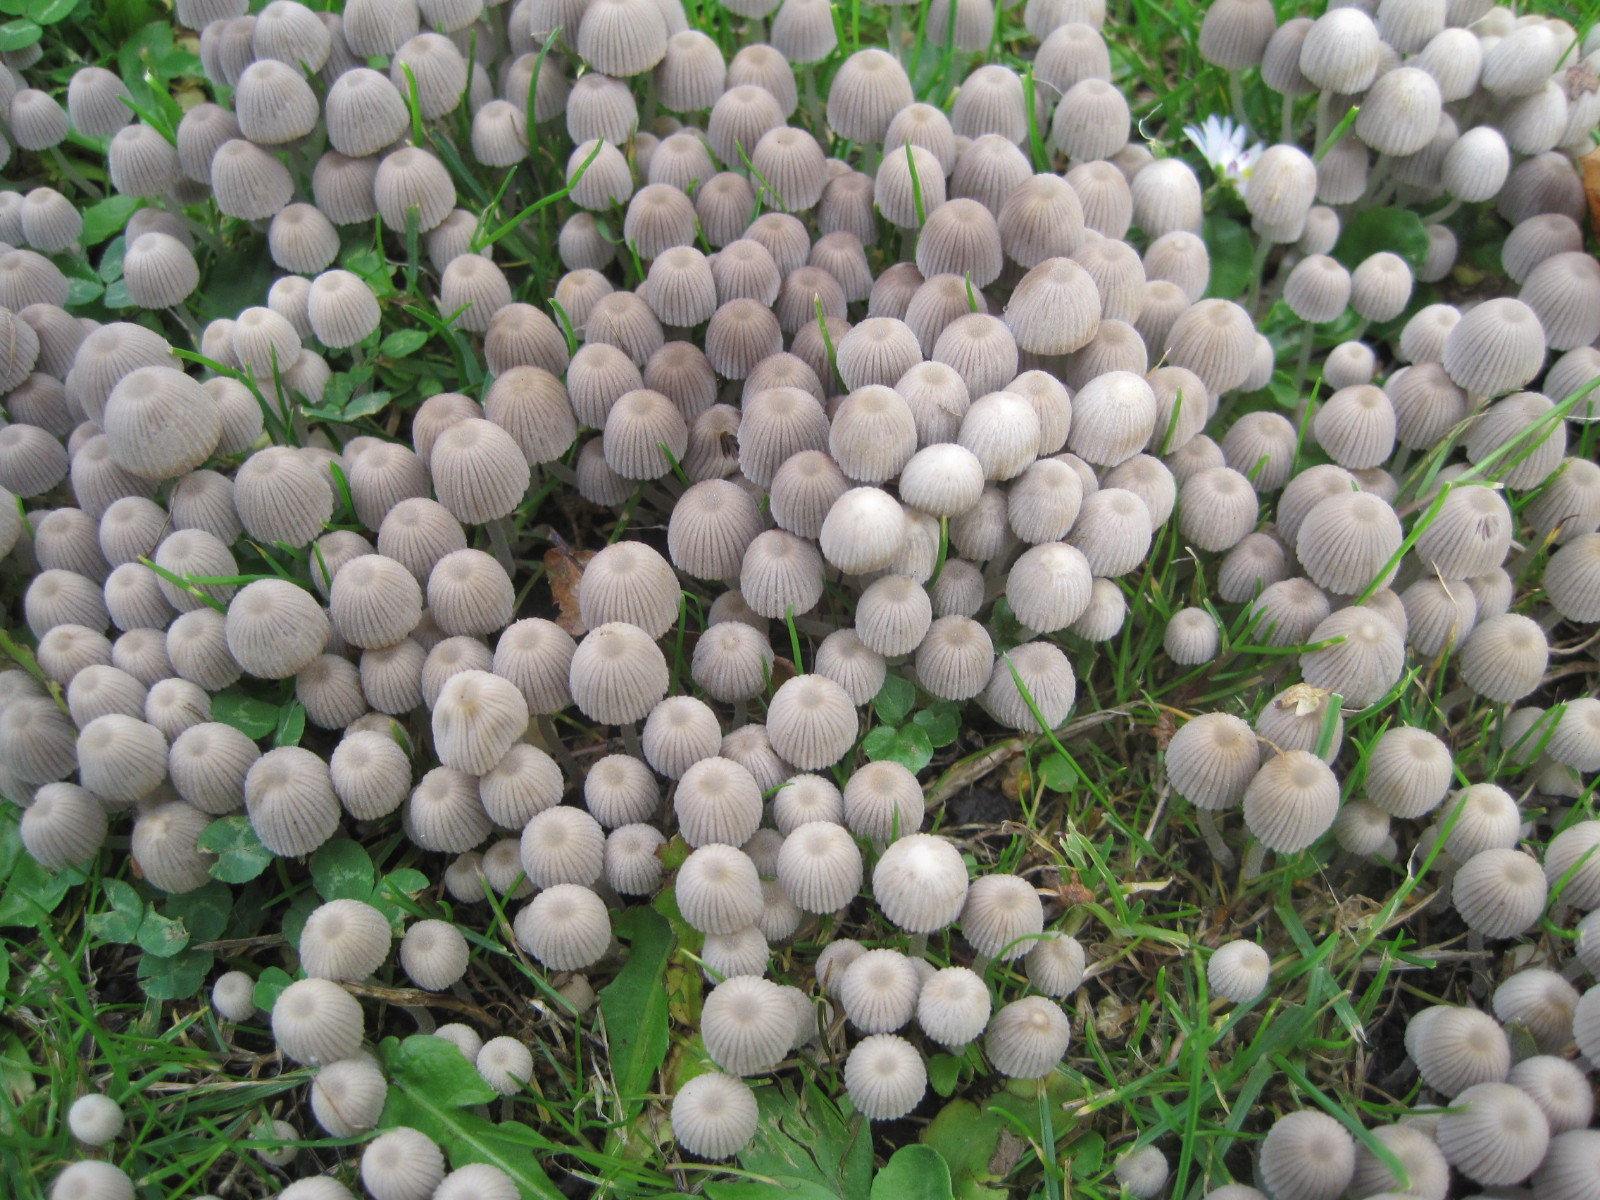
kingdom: Fungi
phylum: Basidiomycota
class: Agaricomycetes
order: Agaricales
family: Psathyrellaceae
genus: Coprinellus
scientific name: Coprinellus disseminatus
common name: bredsået blækhat
